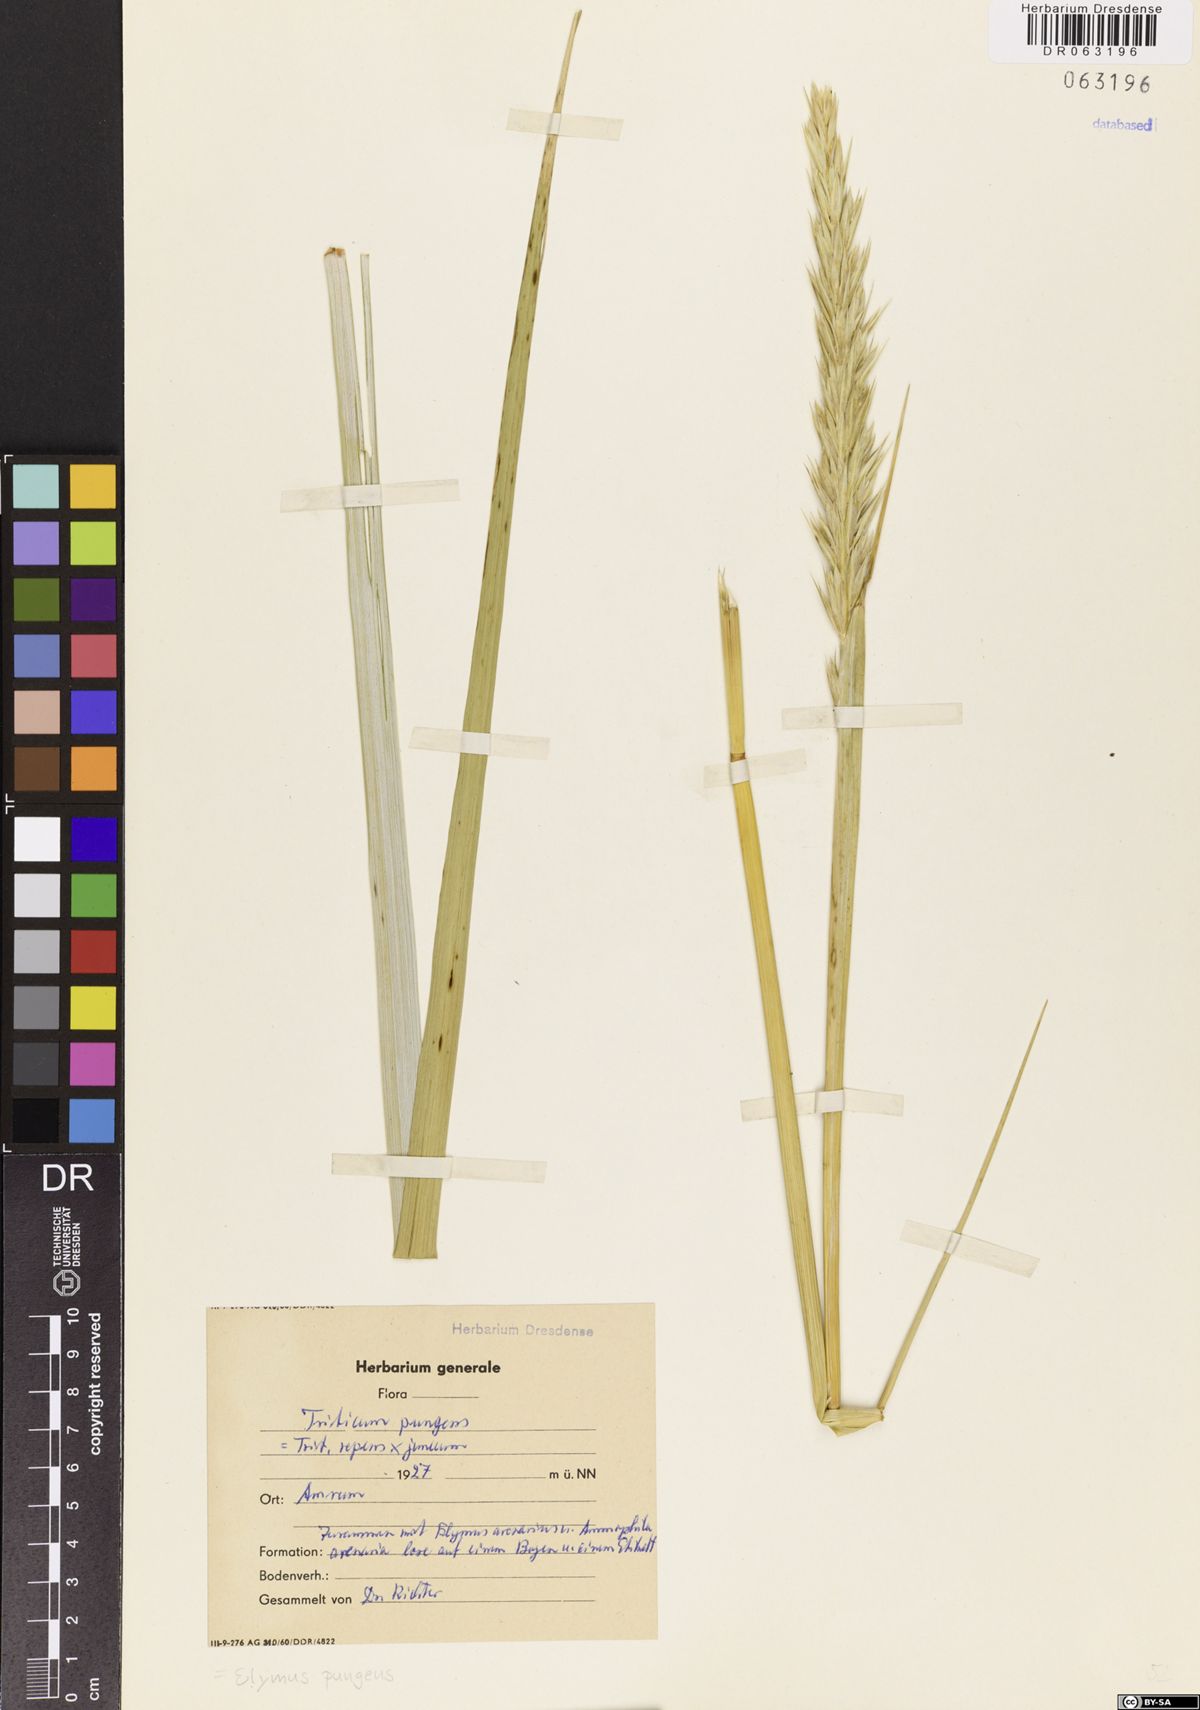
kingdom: Plantae
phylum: Tracheophyta
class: Liliopsida
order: Poales
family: Poaceae
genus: Elymus
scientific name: Elymus pungens
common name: Sea couch
